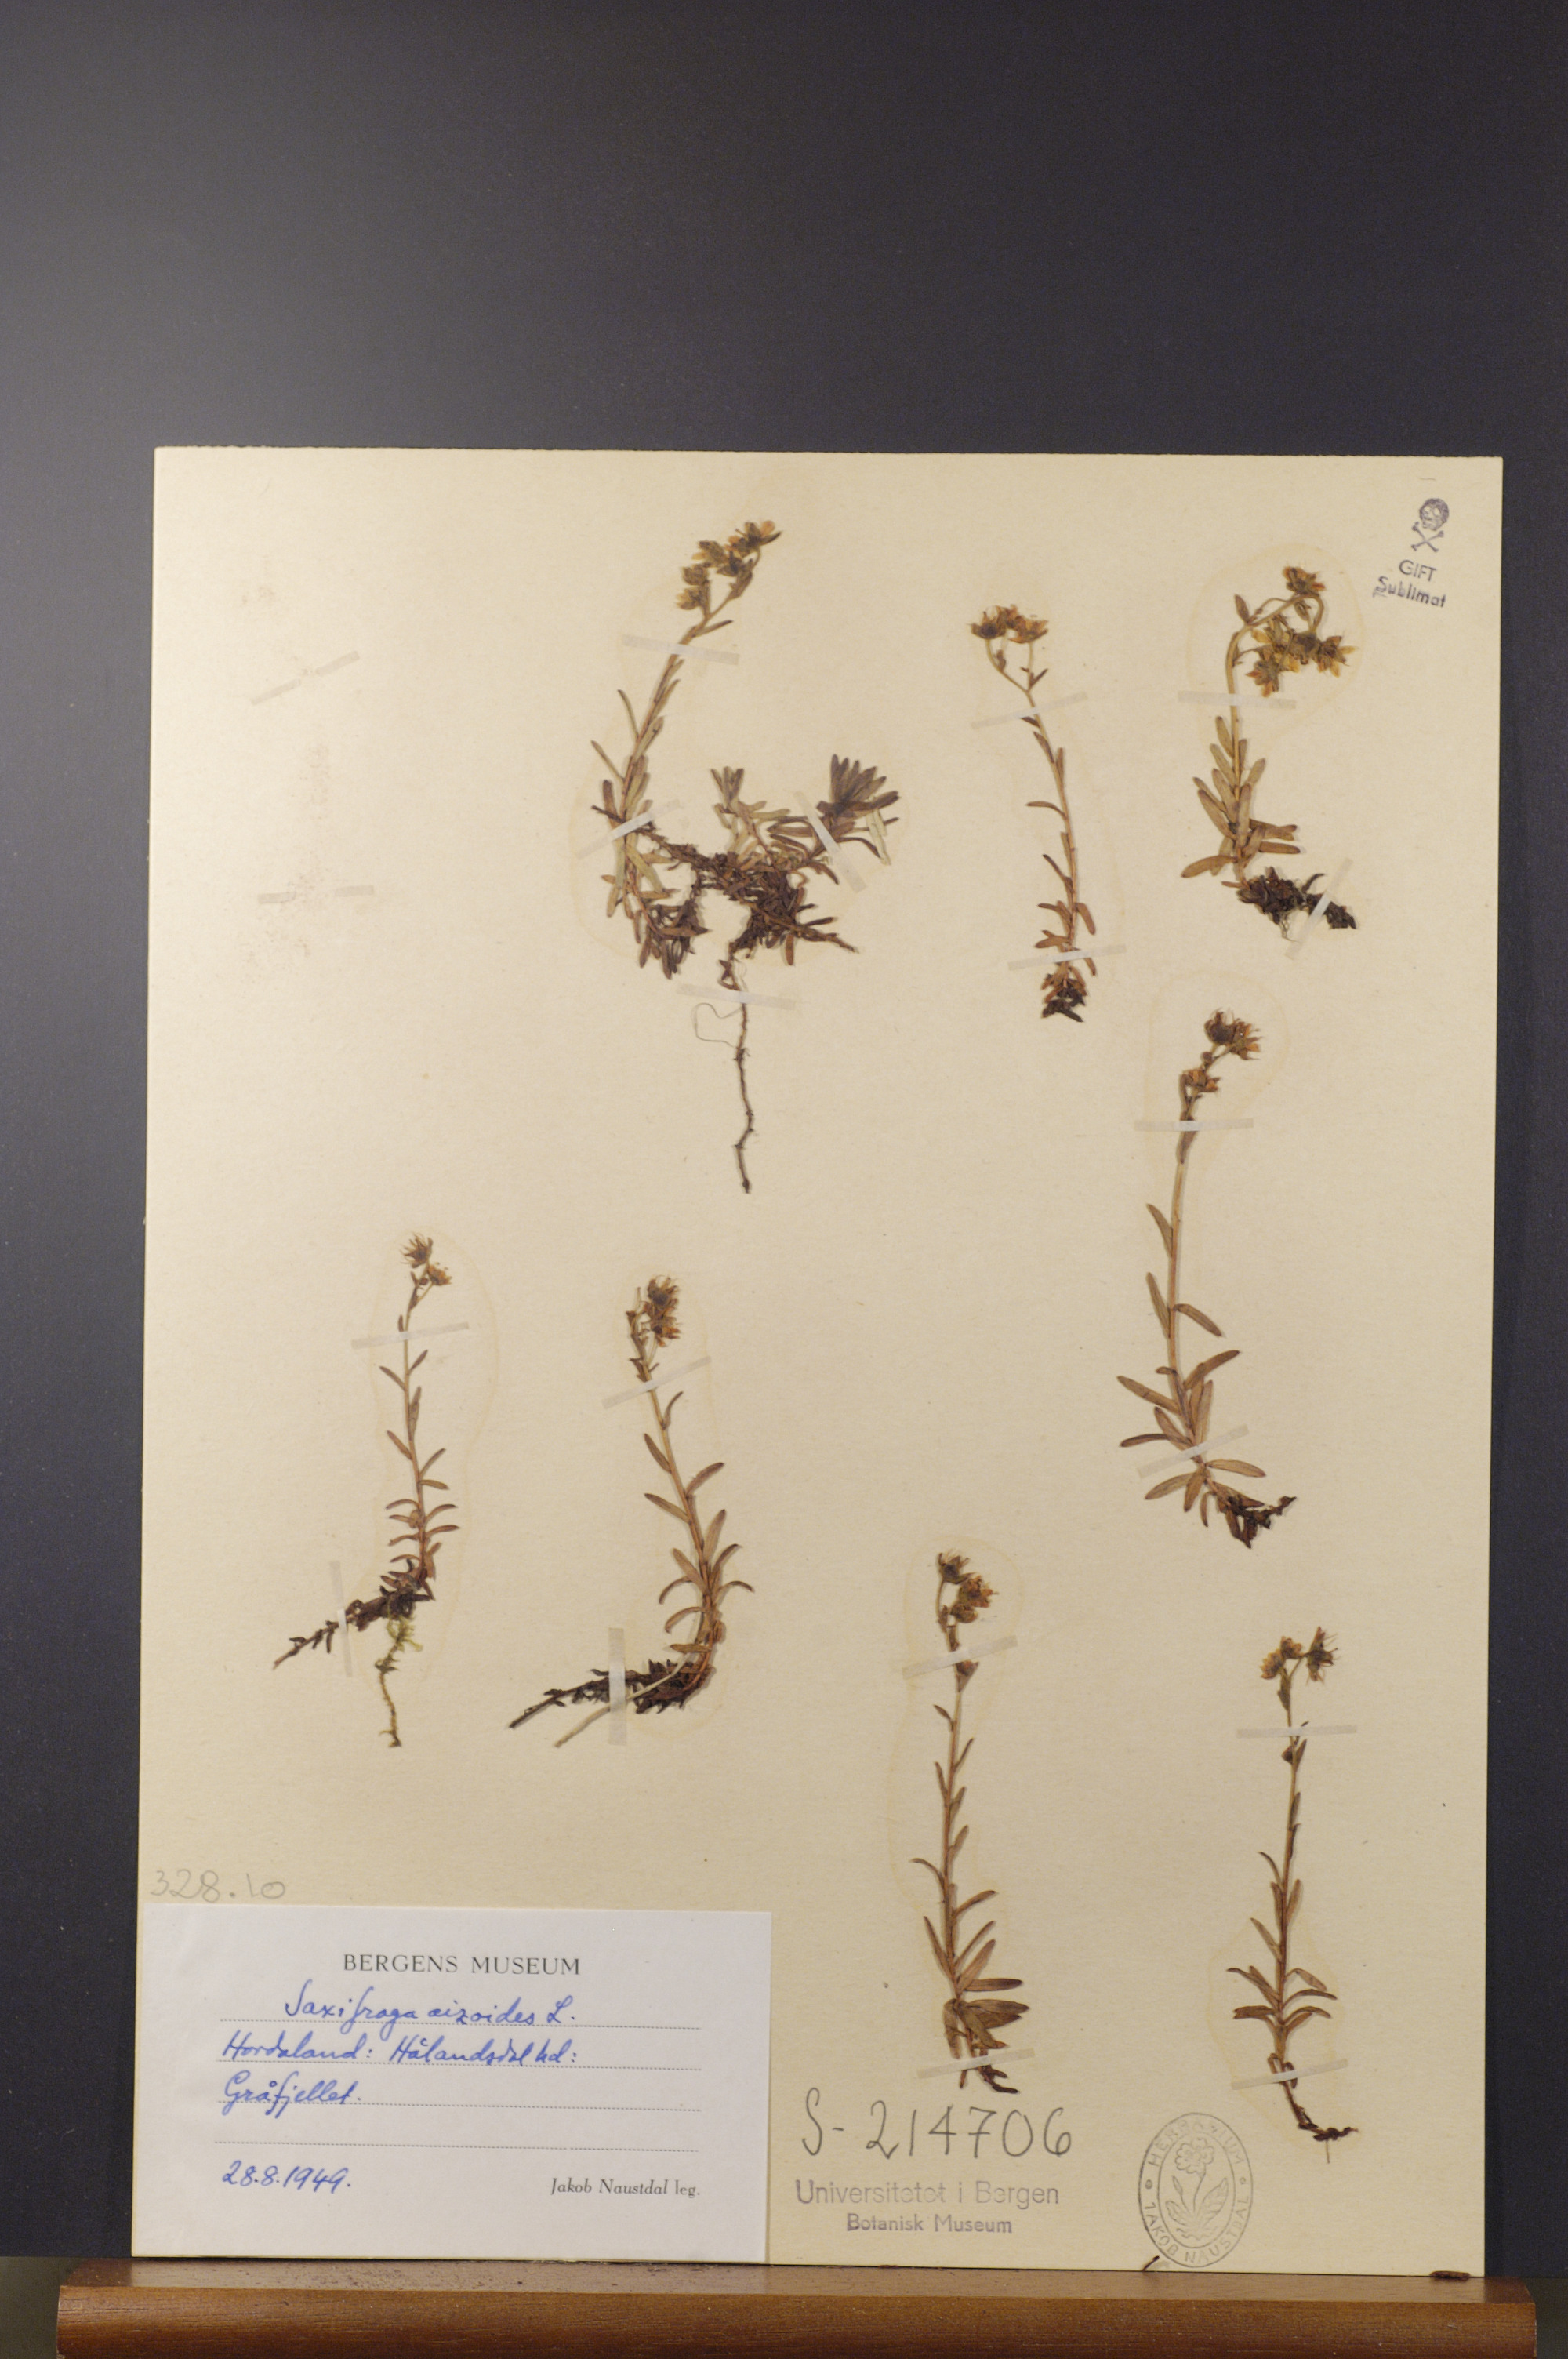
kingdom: Plantae
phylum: Tracheophyta
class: Magnoliopsida
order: Saxifragales
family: Saxifragaceae
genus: Saxifraga
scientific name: Saxifraga aizoides
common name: Yellow mountain saxifrage
